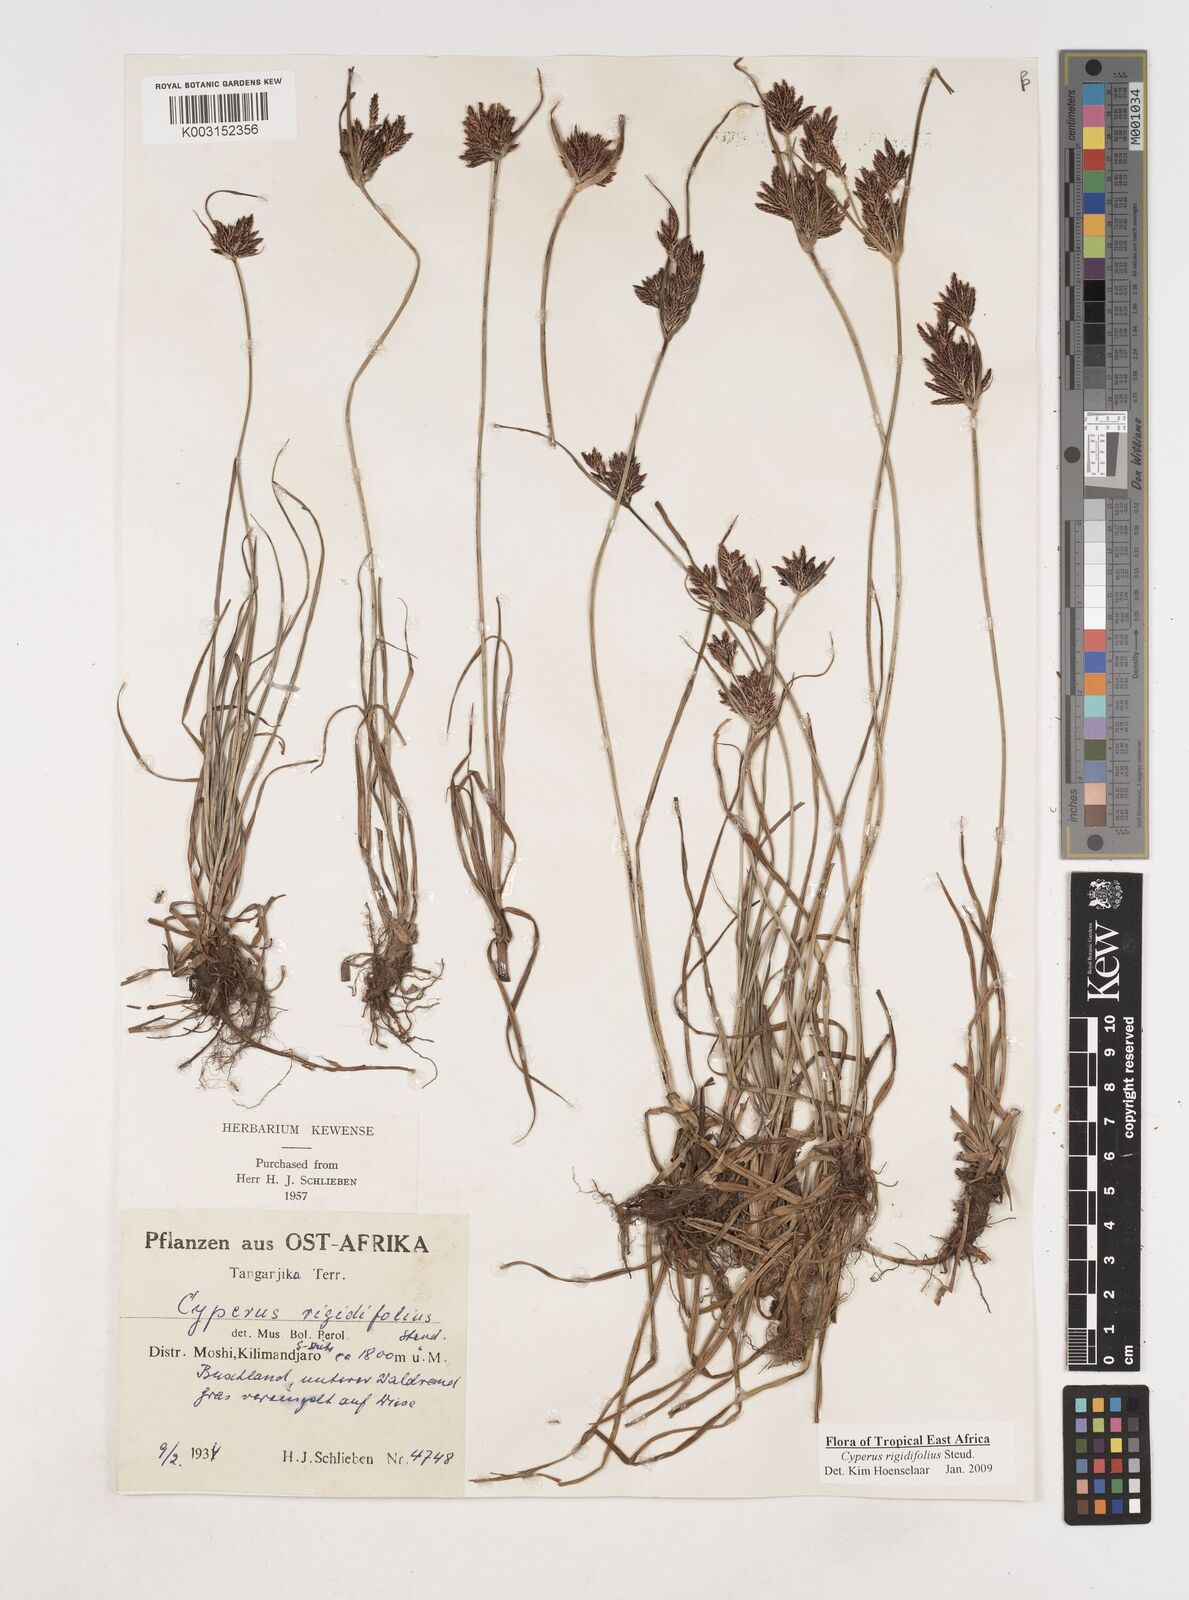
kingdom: Plantae
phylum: Tracheophyta
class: Liliopsida
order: Poales
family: Cyperaceae
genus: Cyperus
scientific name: Cyperus rigidifolius
